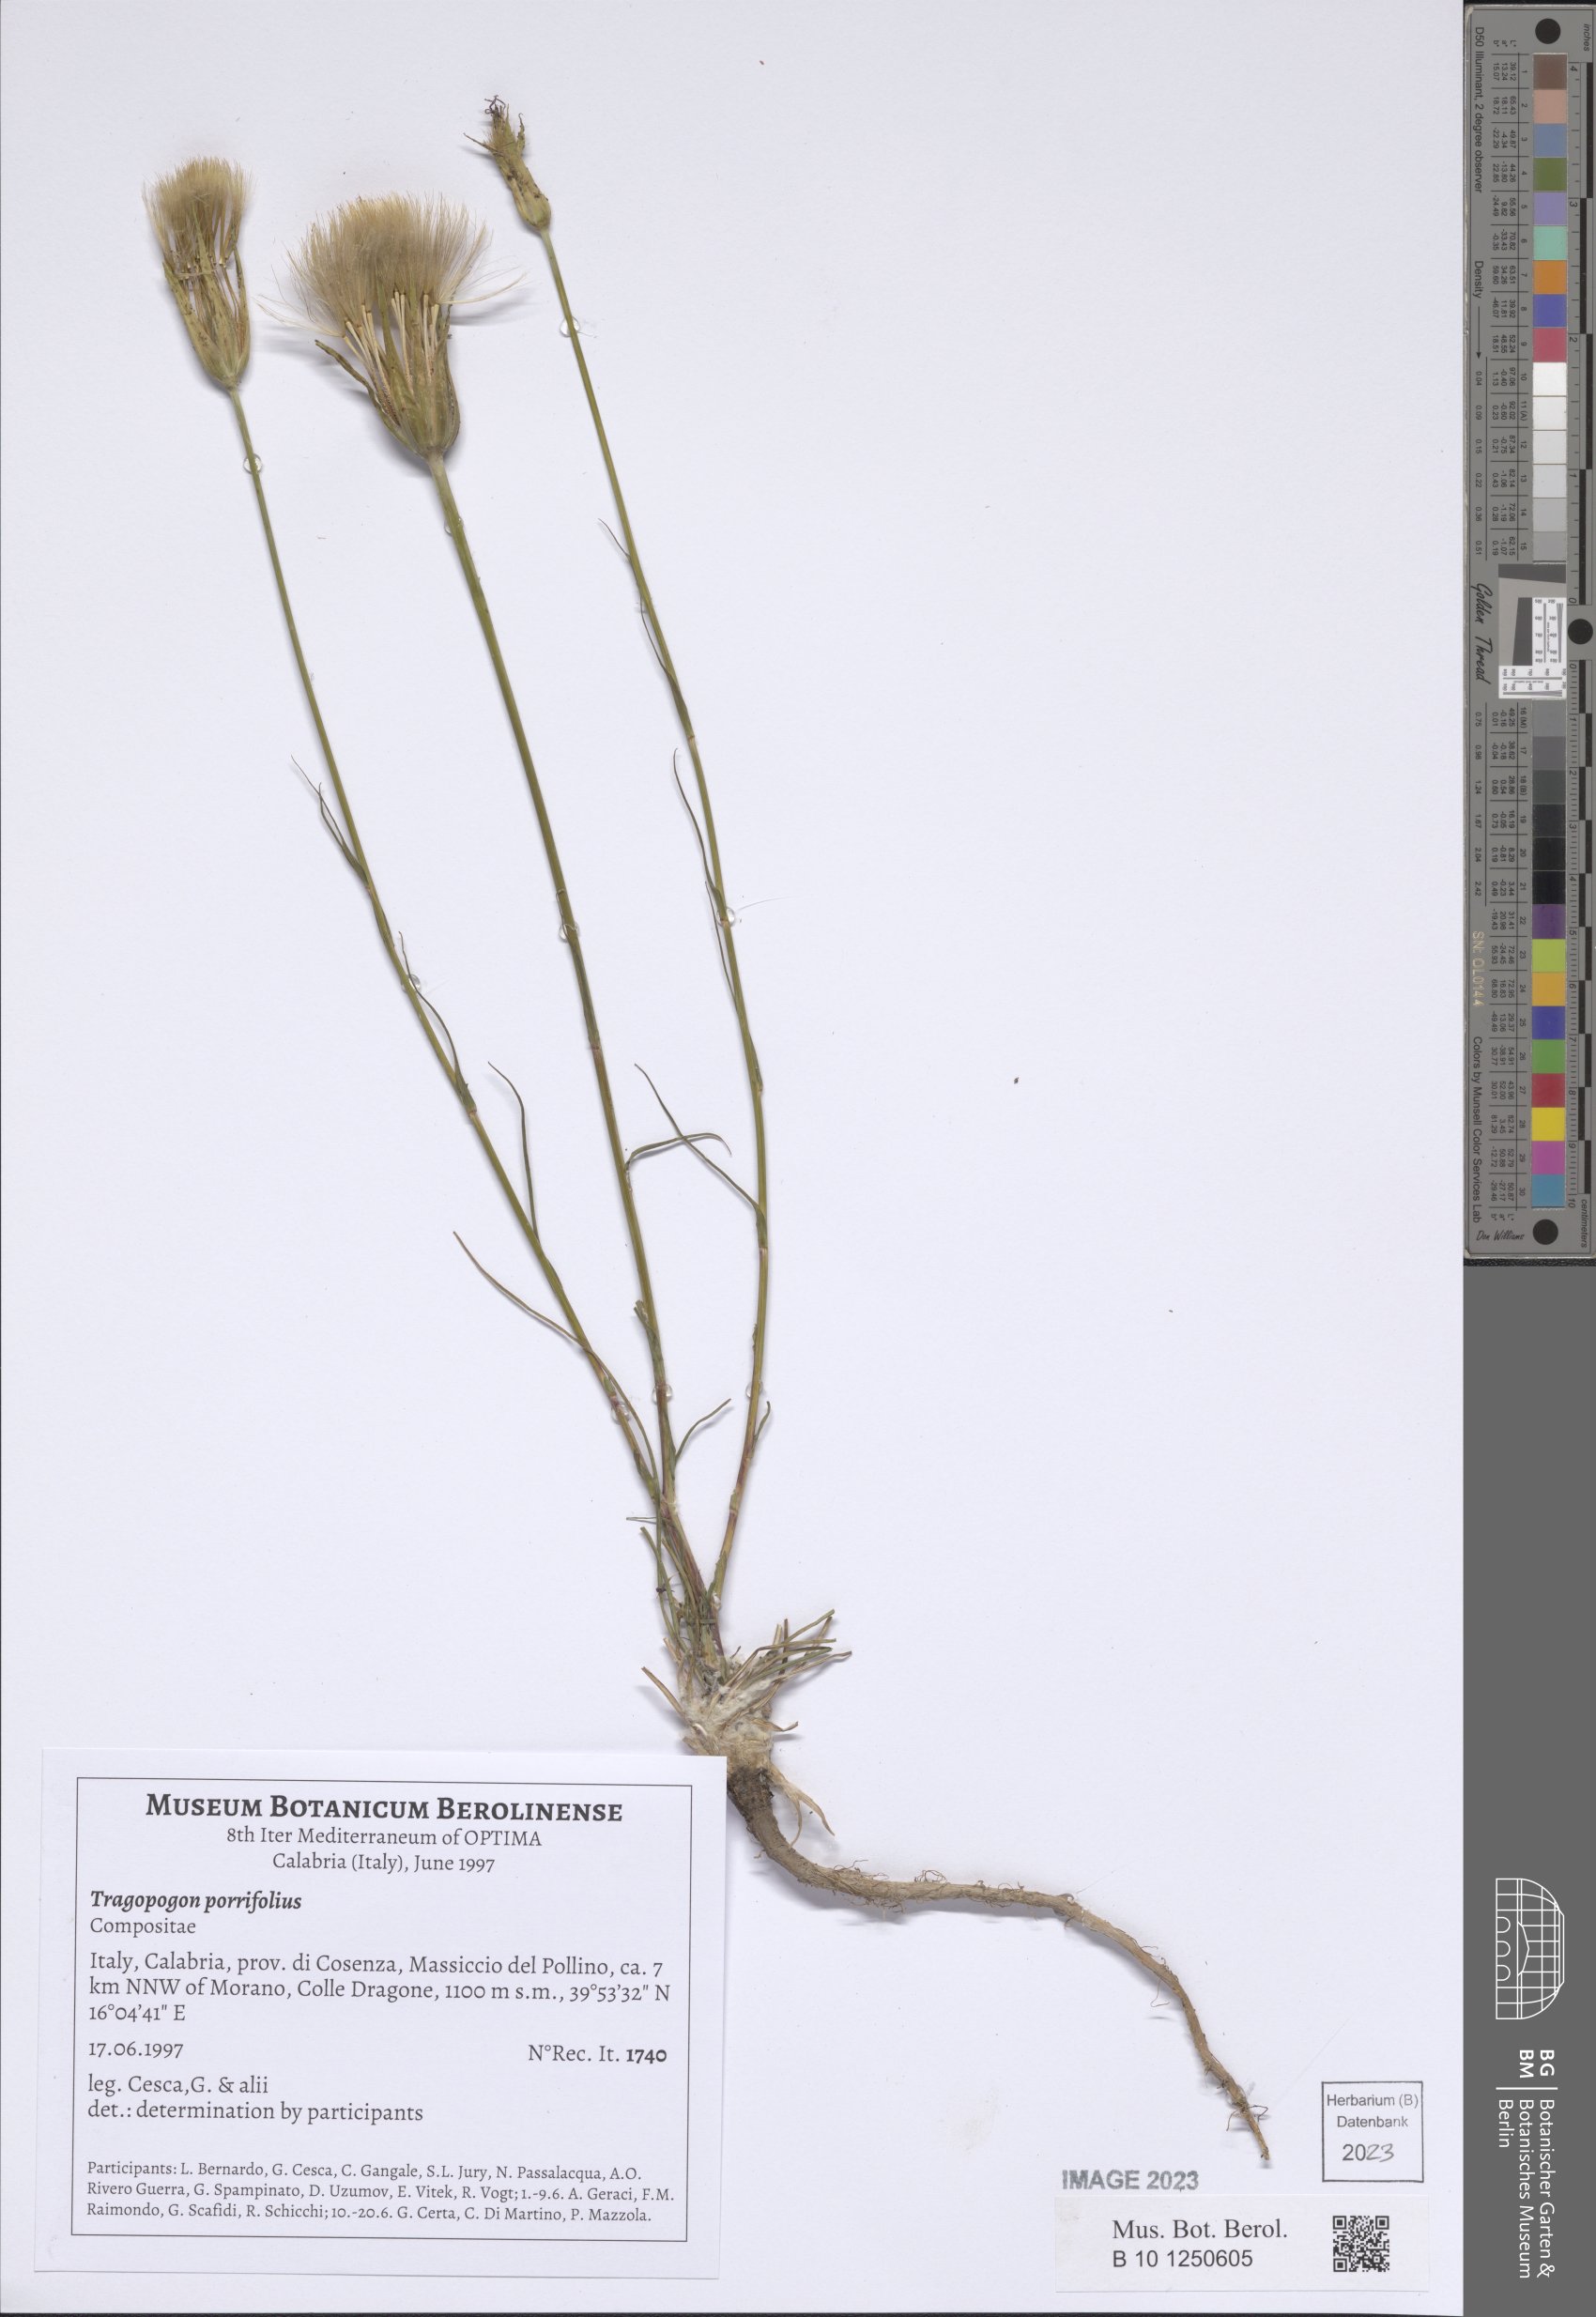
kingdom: Plantae
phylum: Tracheophyta
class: Magnoliopsida
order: Asterales
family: Asteraceae
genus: Tragopogon
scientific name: Tragopogon porrifolius
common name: Salsify
